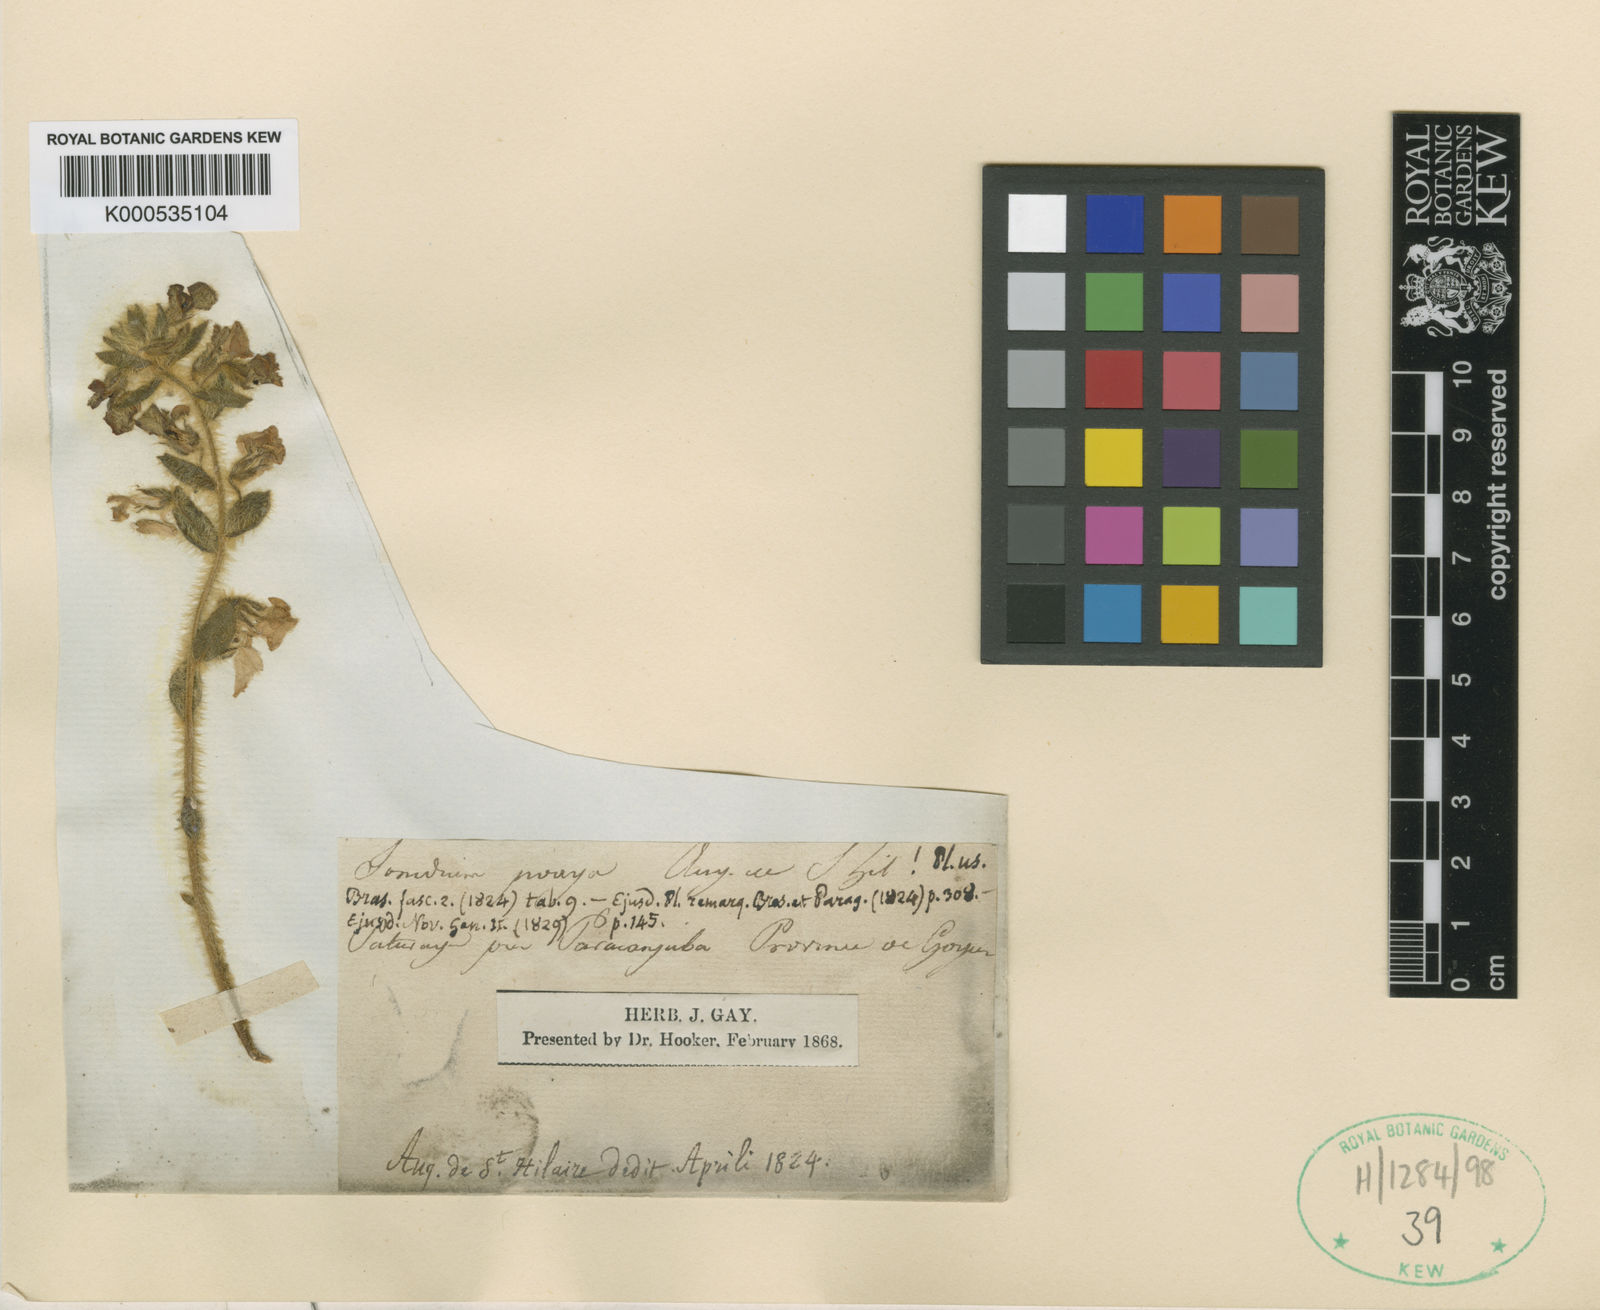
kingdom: Plantae
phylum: Tracheophyta
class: Magnoliopsida
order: Malpighiales
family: Violaceae
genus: Hybanthus
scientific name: Hybanthus
